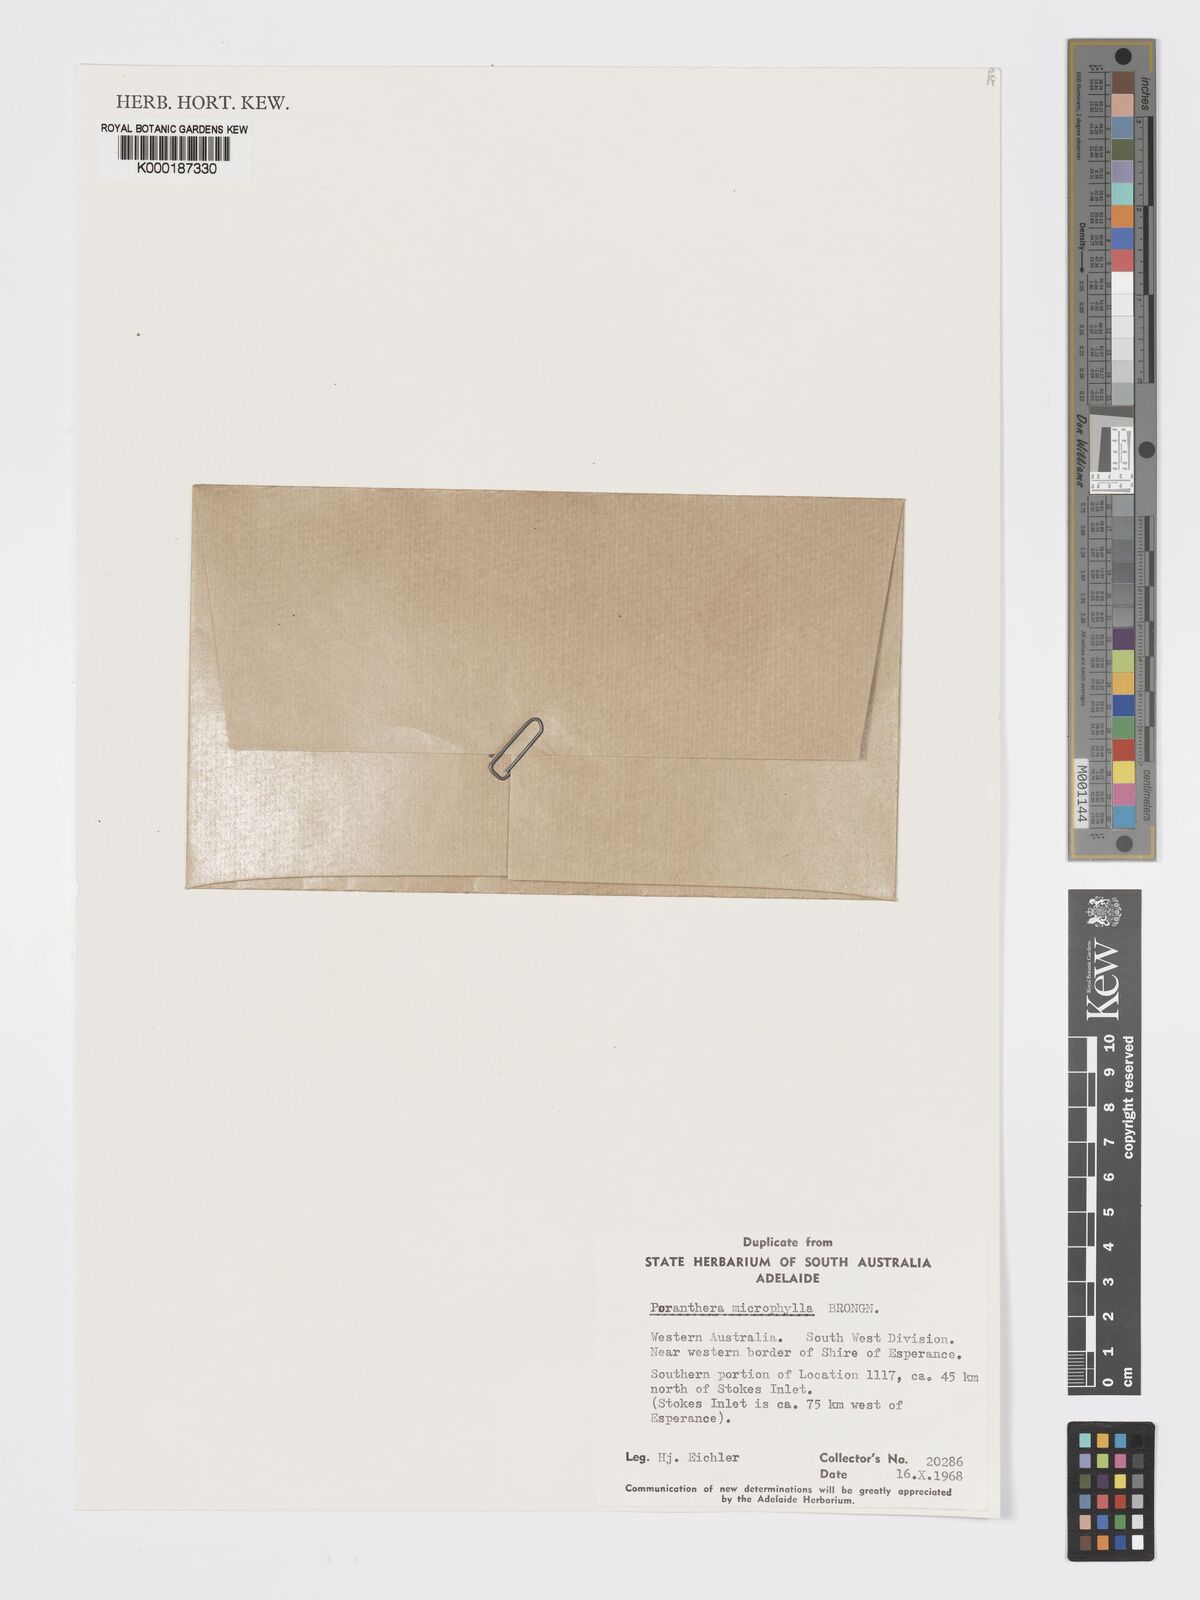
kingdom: Plantae
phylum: Tracheophyta
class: Magnoliopsida
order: Malpighiales
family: Phyllanthaceae
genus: Poranthera
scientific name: Poranthera microphylla
